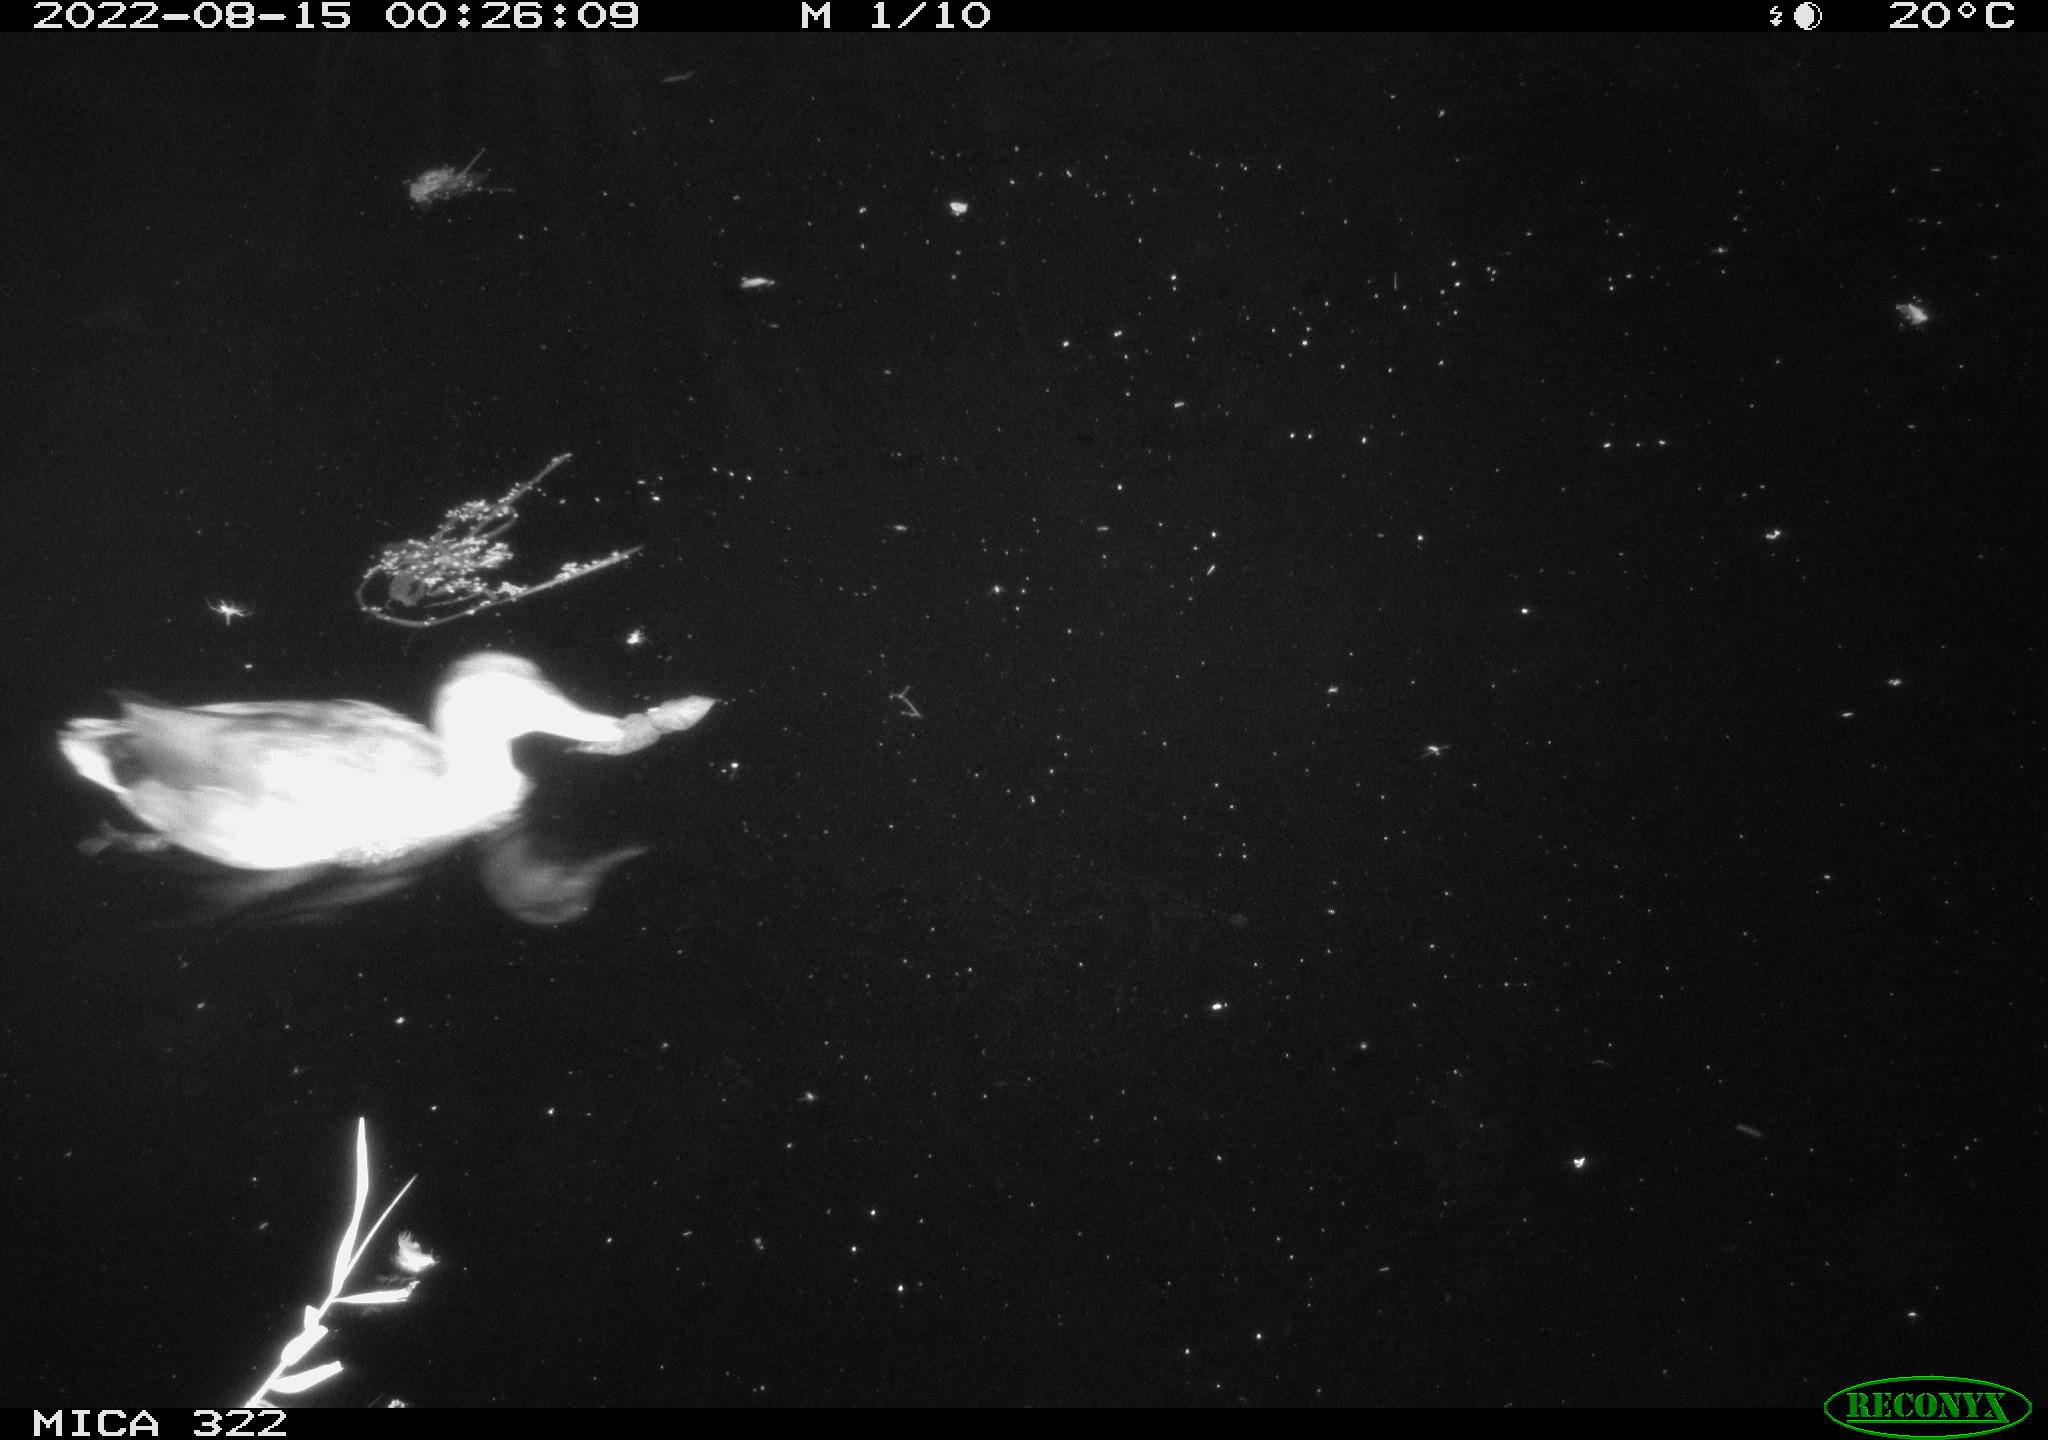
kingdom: Animalia
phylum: Chordata
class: Aves
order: Anseriformes
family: Anatidae
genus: Anas
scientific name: Anas platyrhynchos
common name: Mallard
